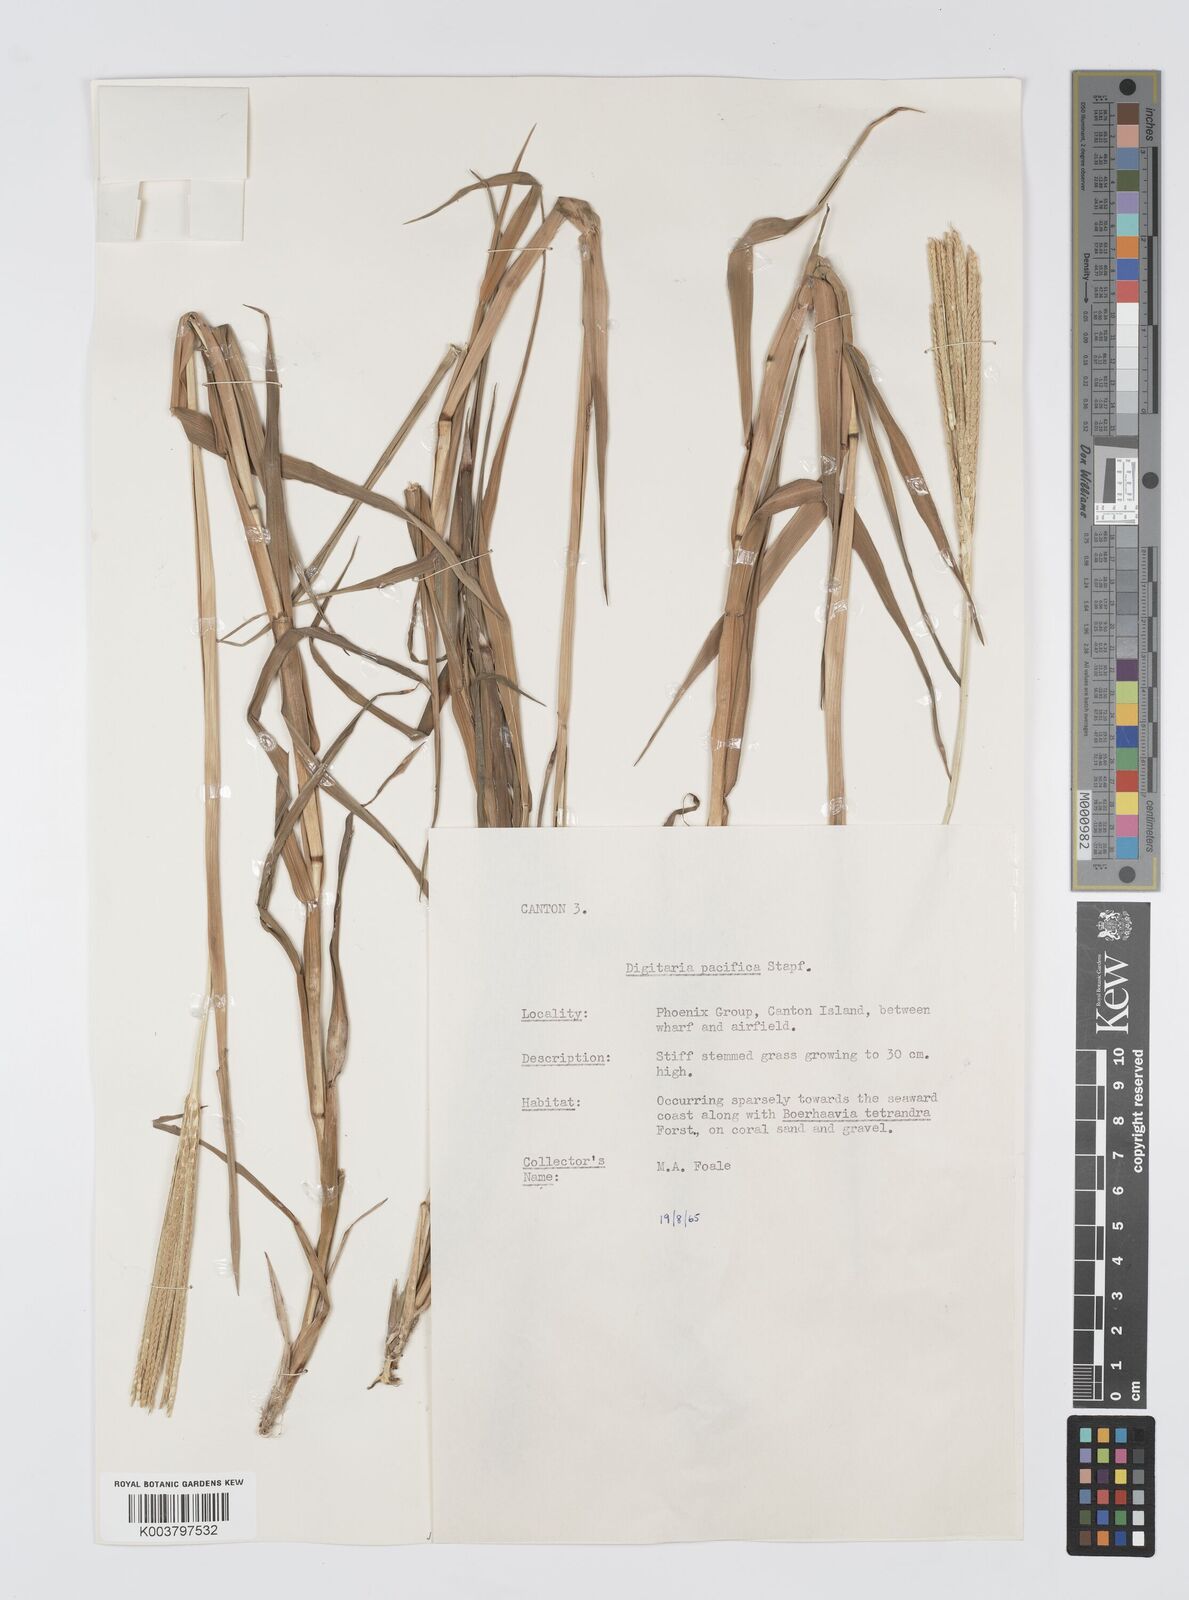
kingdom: Plantae
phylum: Tracheophyta
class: Liliopsida
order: Poales
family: Poaceae
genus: Digitaria
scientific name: Digitaria stenotaphrodes
